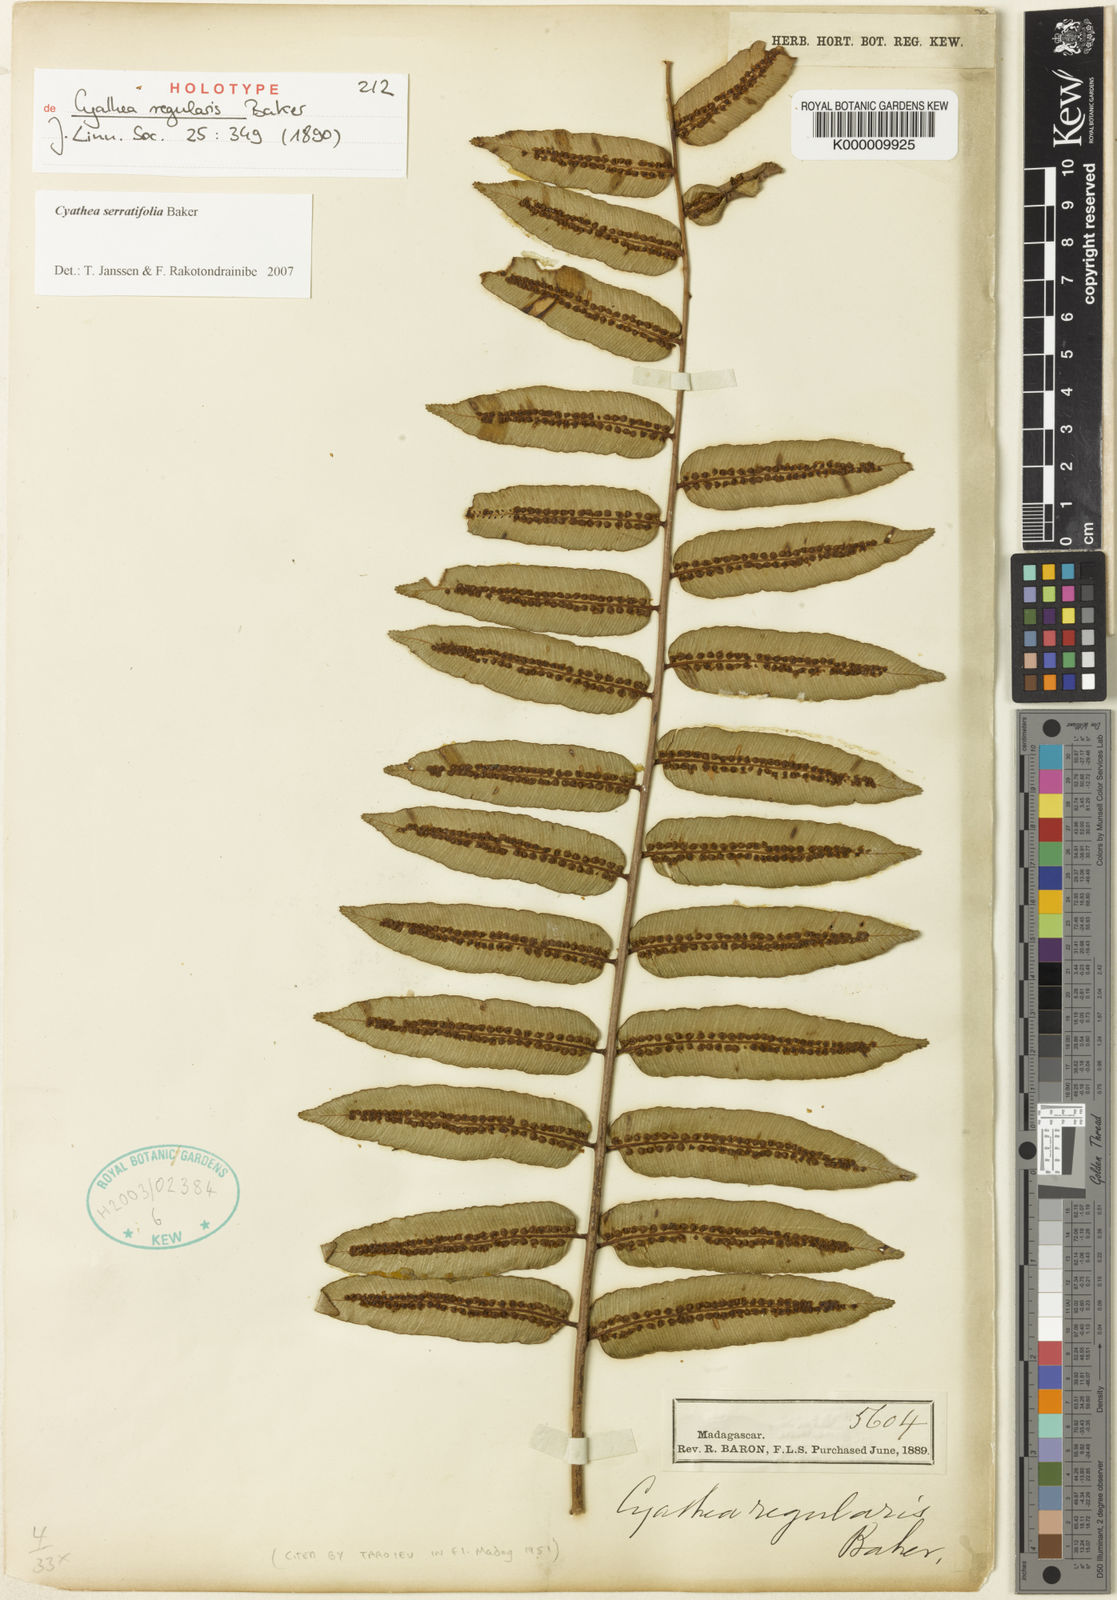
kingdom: Plantae
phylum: Tracheophyta
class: Polypodiopsida
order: Cyatheales
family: Cyatheaceae
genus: Alsophila
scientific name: Alsophila serratifolia
